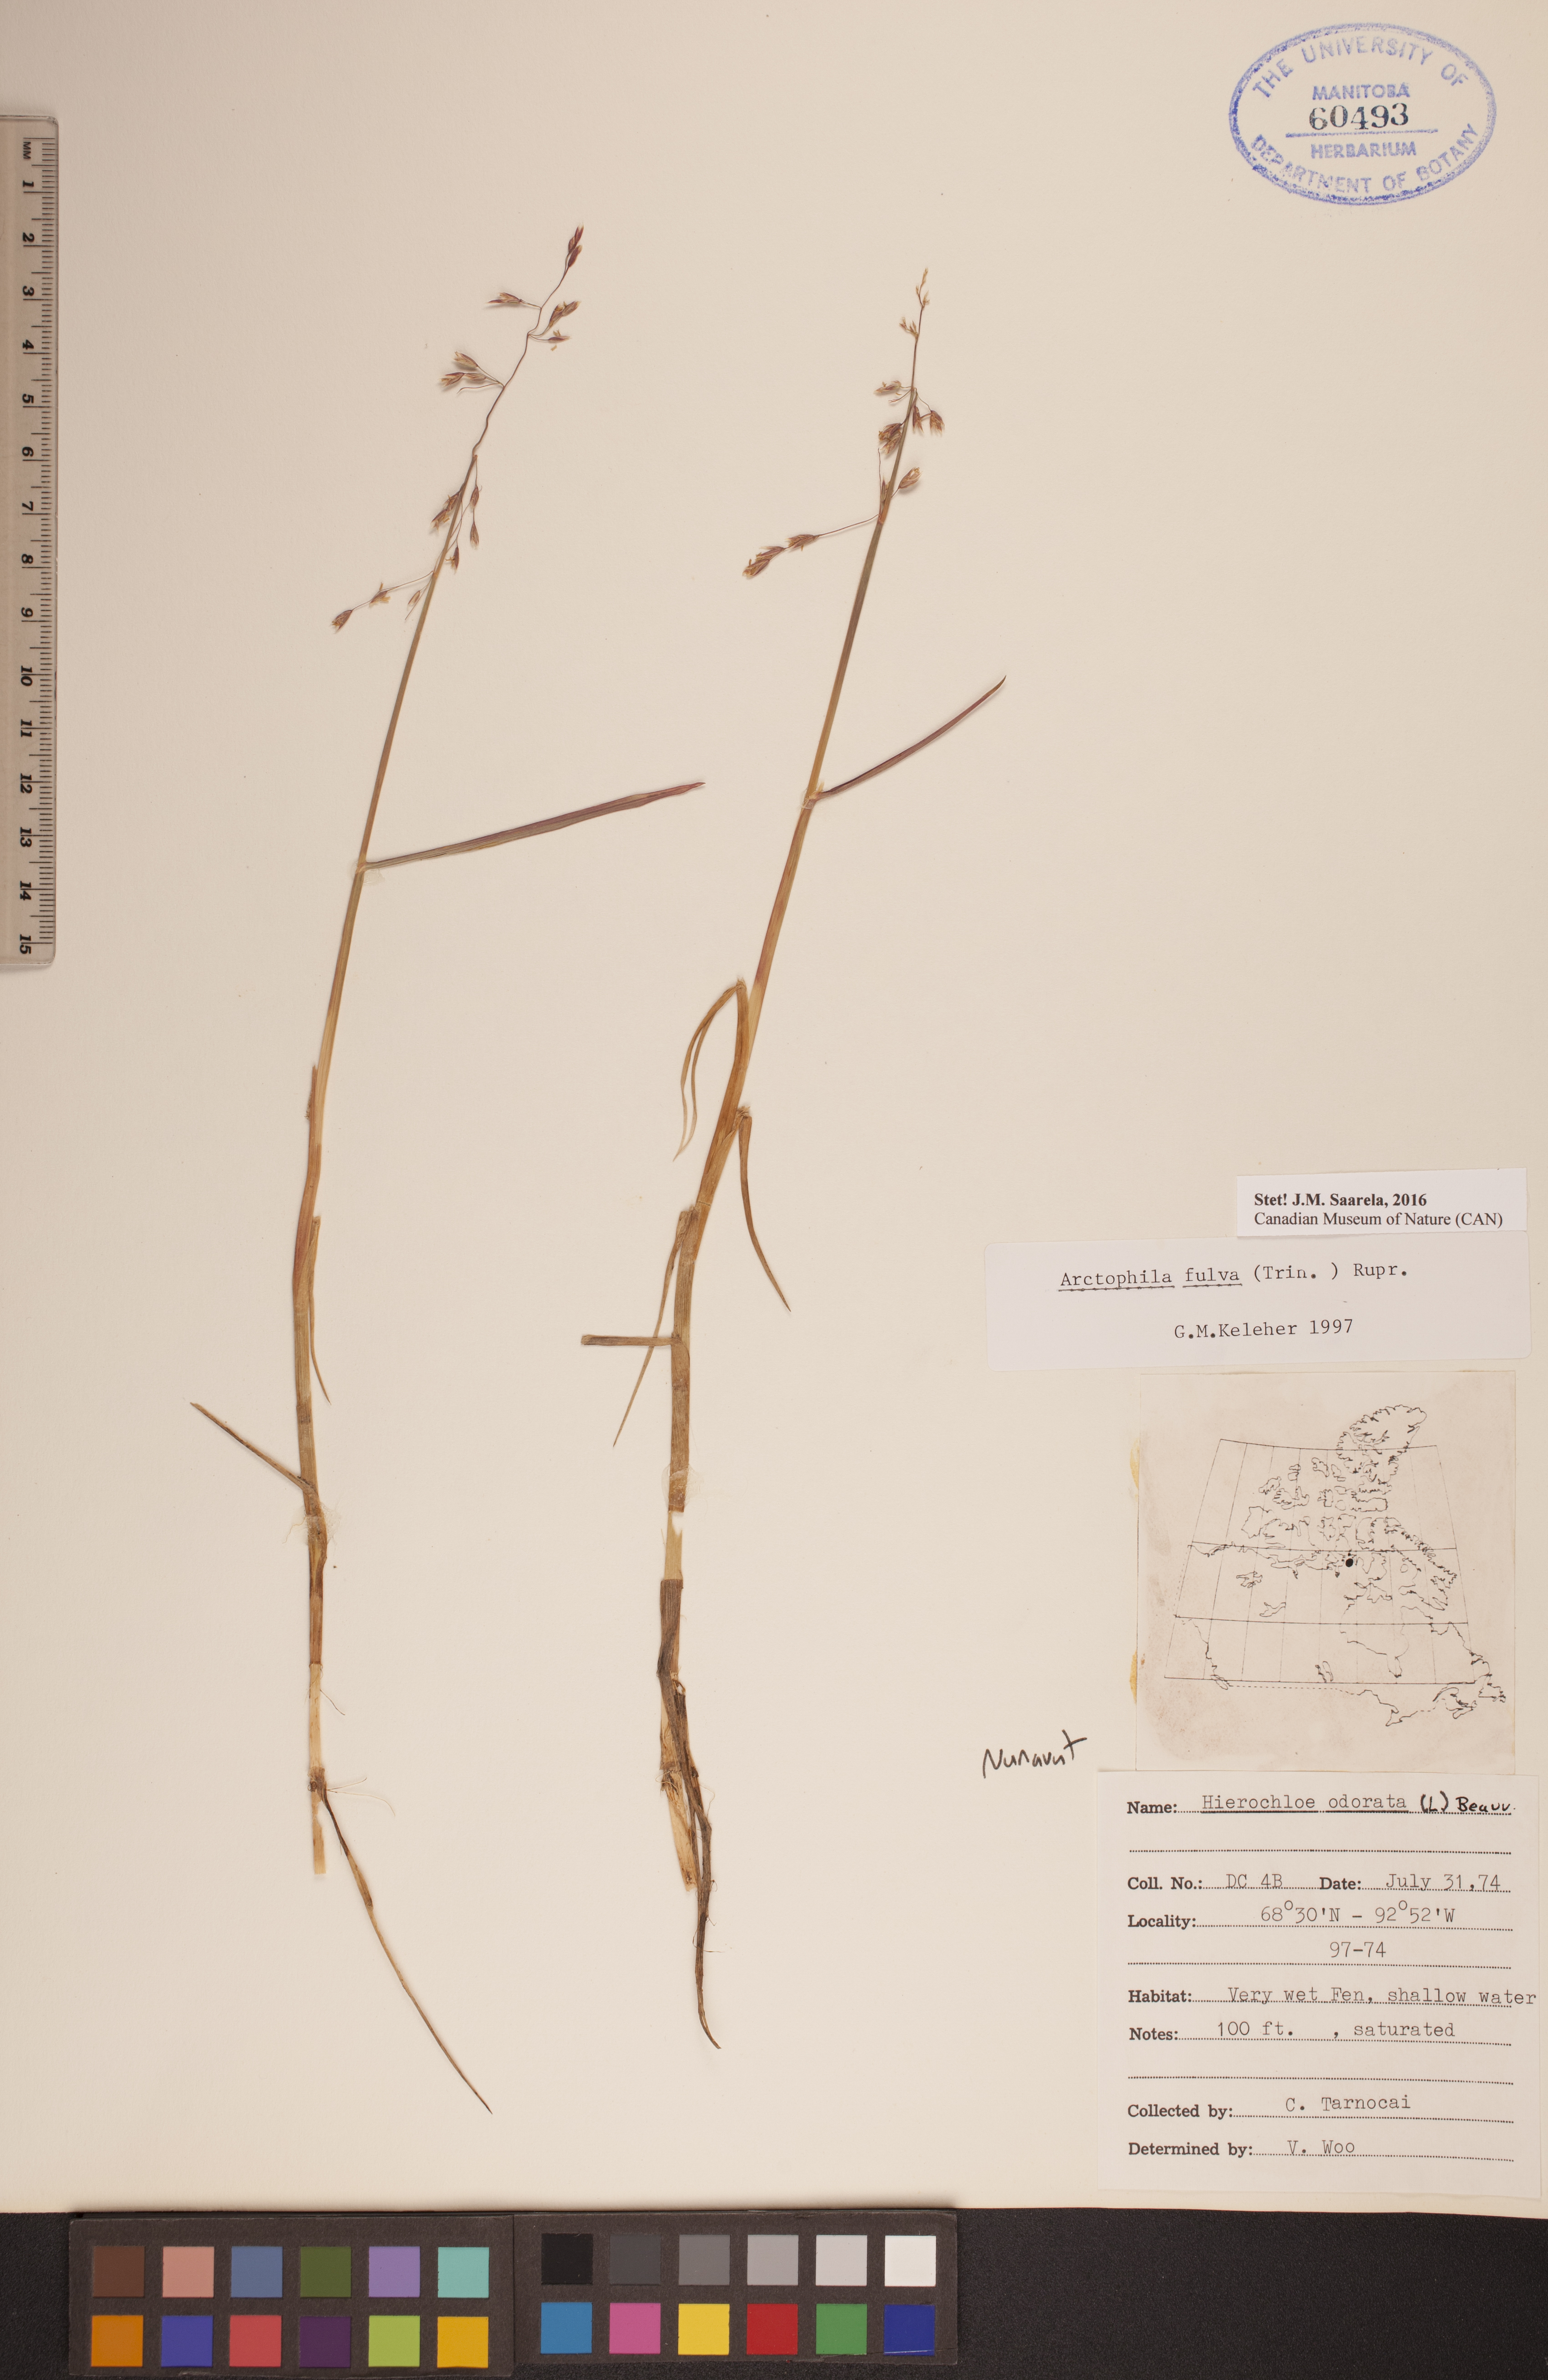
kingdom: Plantae
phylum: Tracheophyta
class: Liliopsida
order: Poales
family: Poaceae
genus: Dupontia
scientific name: Dupontia fulva
